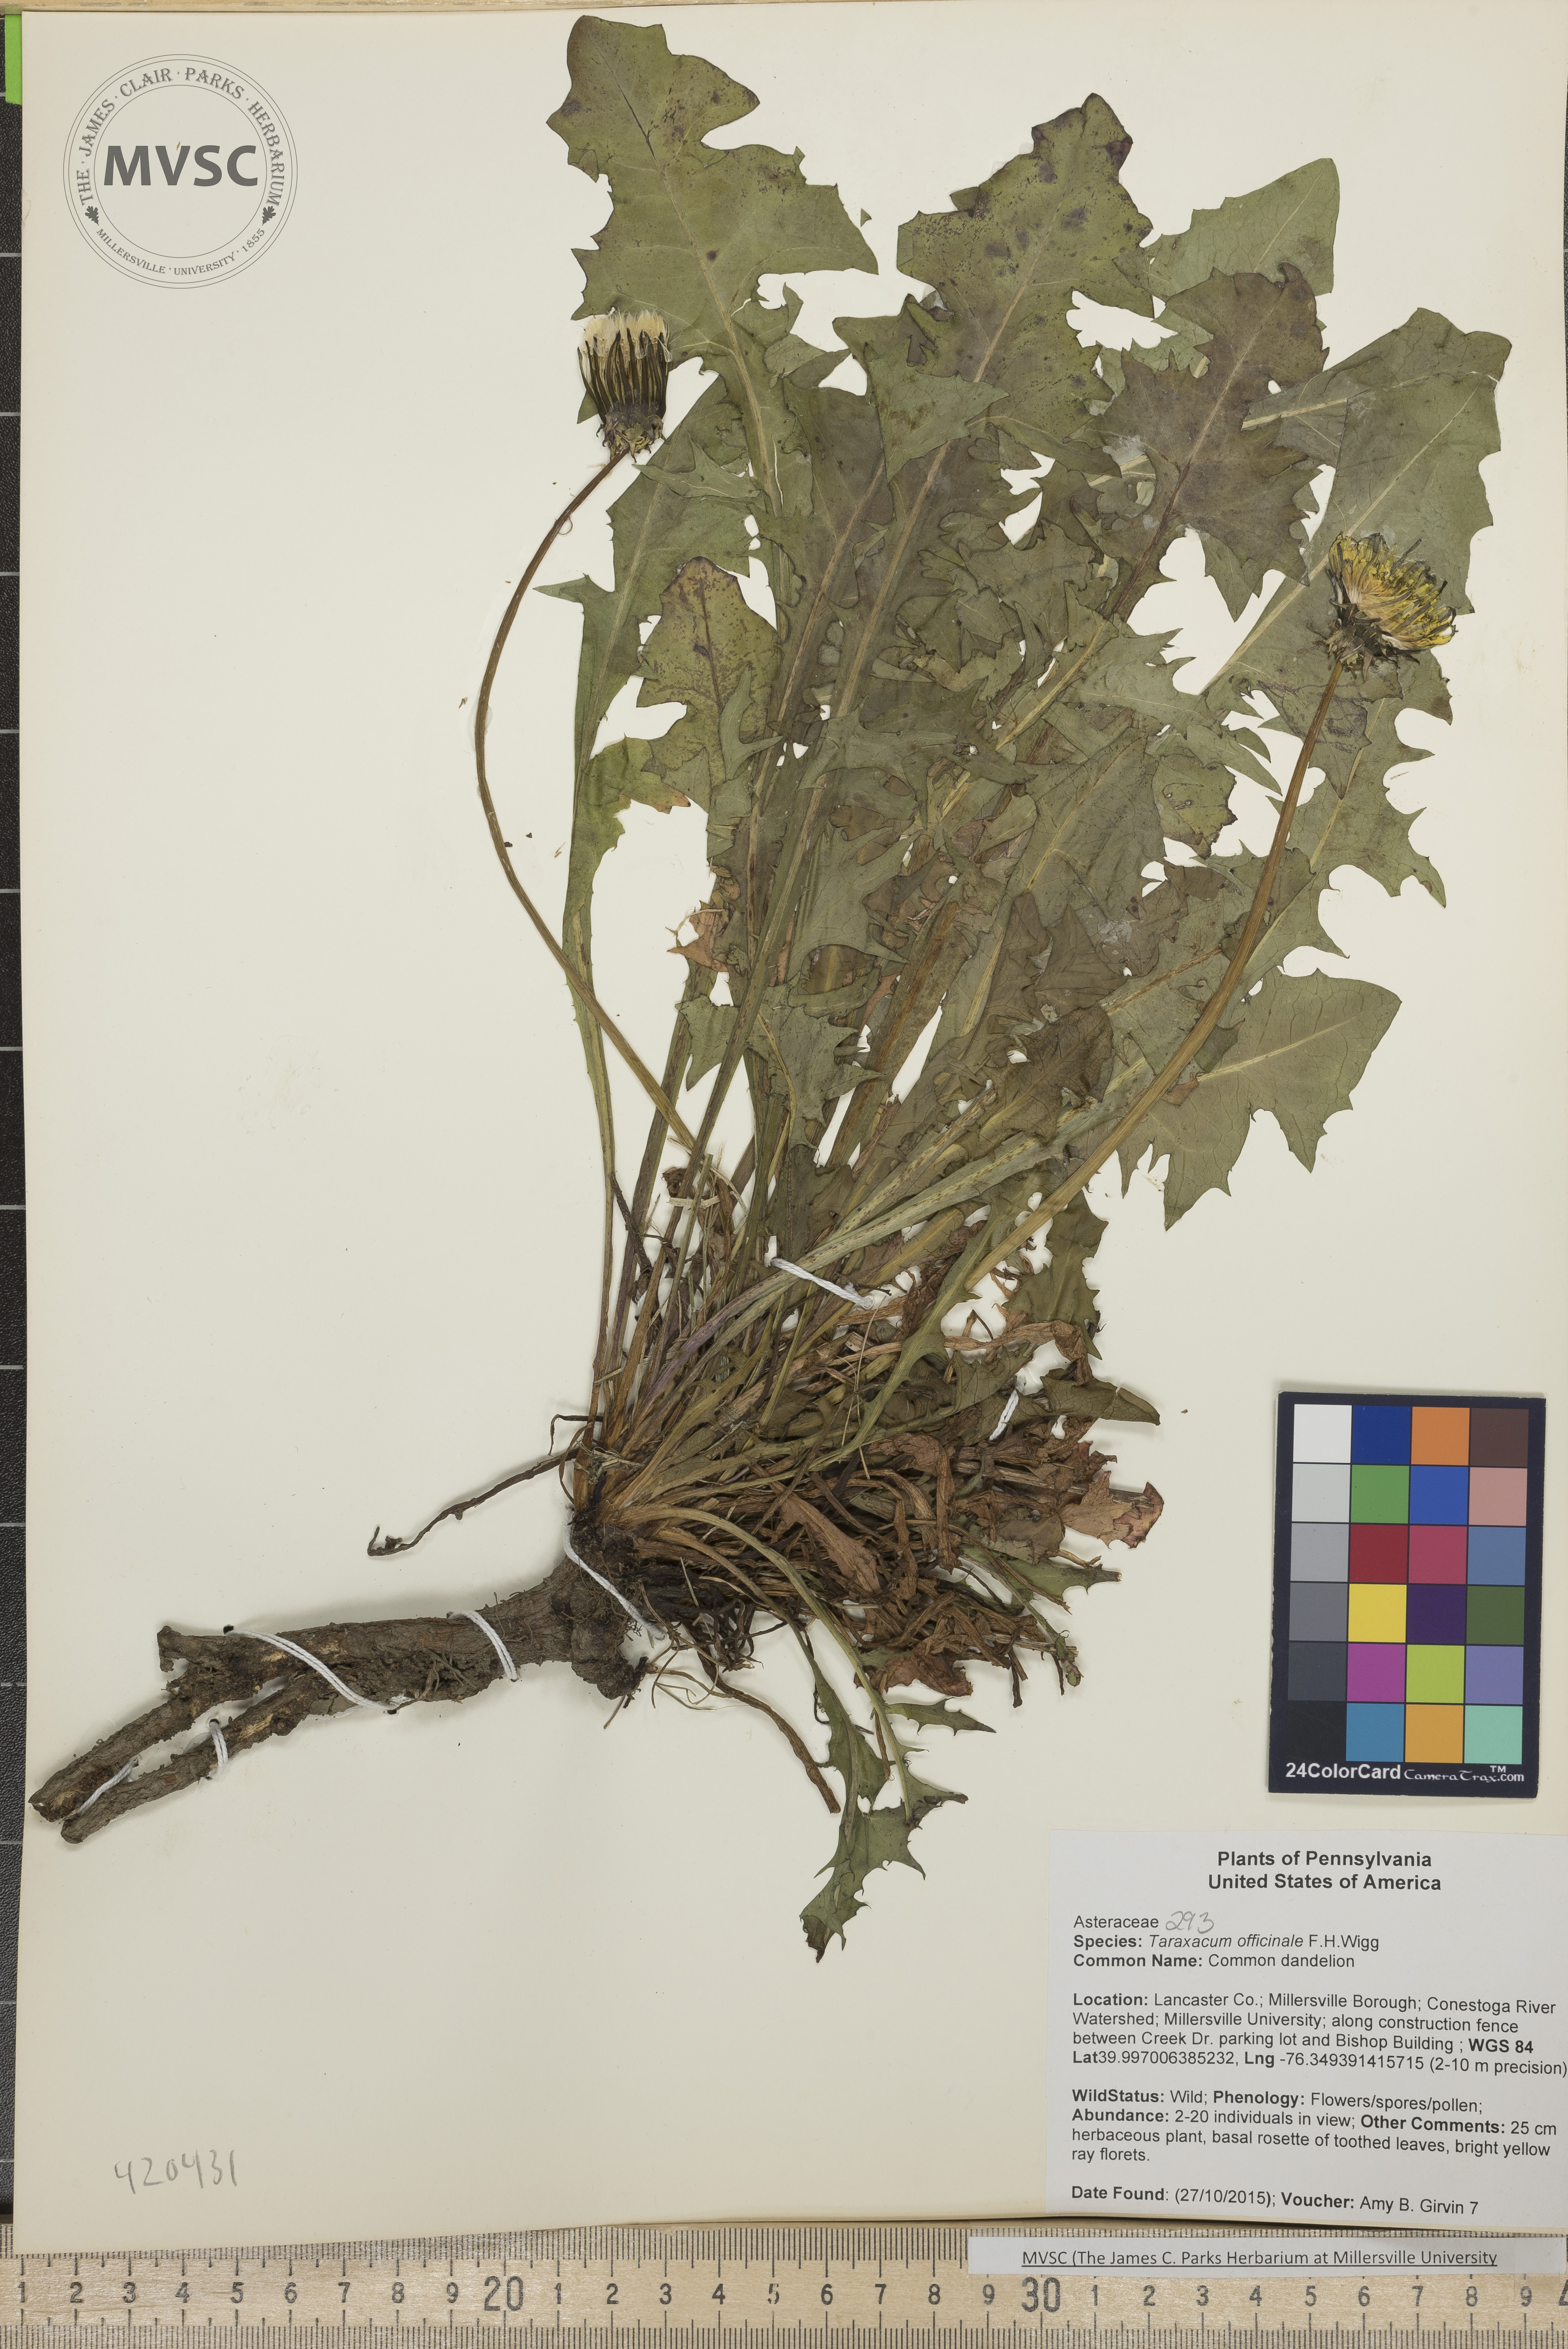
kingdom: Plantae
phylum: Tracheophyta
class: Magnoliopsida
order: Asterales
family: Asteraceae
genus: Taraxacum
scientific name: Taraxacum officinale
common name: Common dandelion
